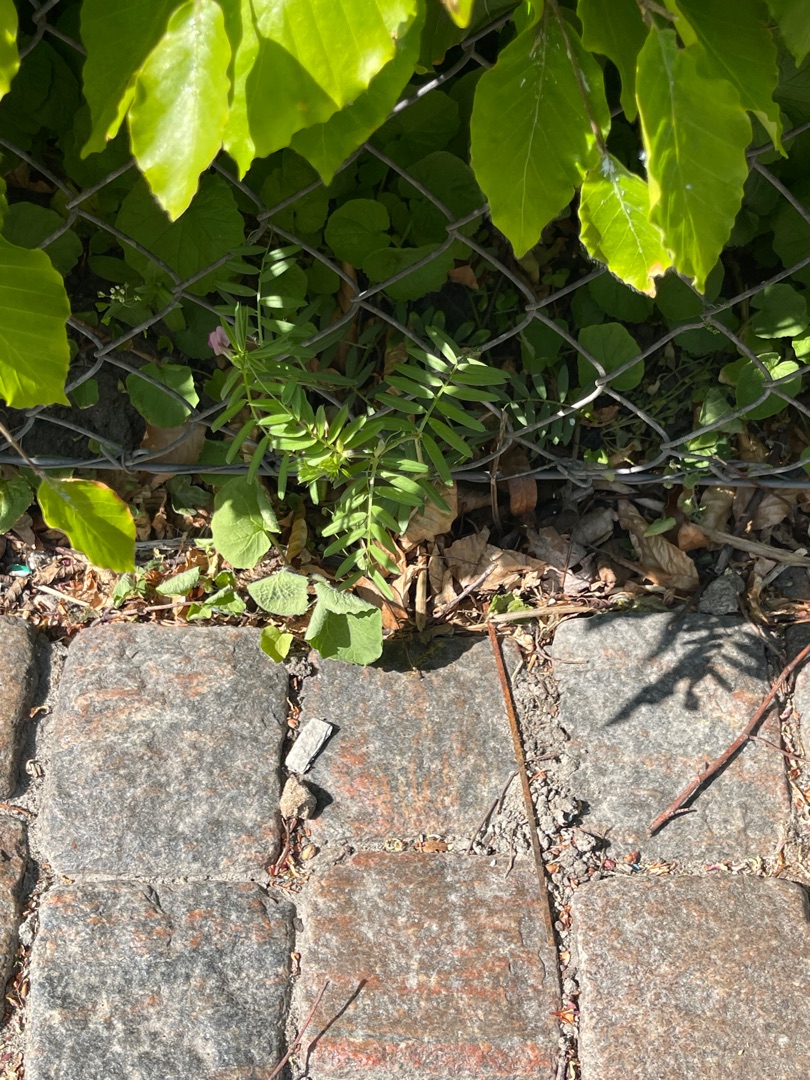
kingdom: Plantae
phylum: Tracheophyta
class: Magnoliopsida
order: Fabales
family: Fabaceae
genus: Vicia
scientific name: Vicia sativa
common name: Smalbladet vikke
